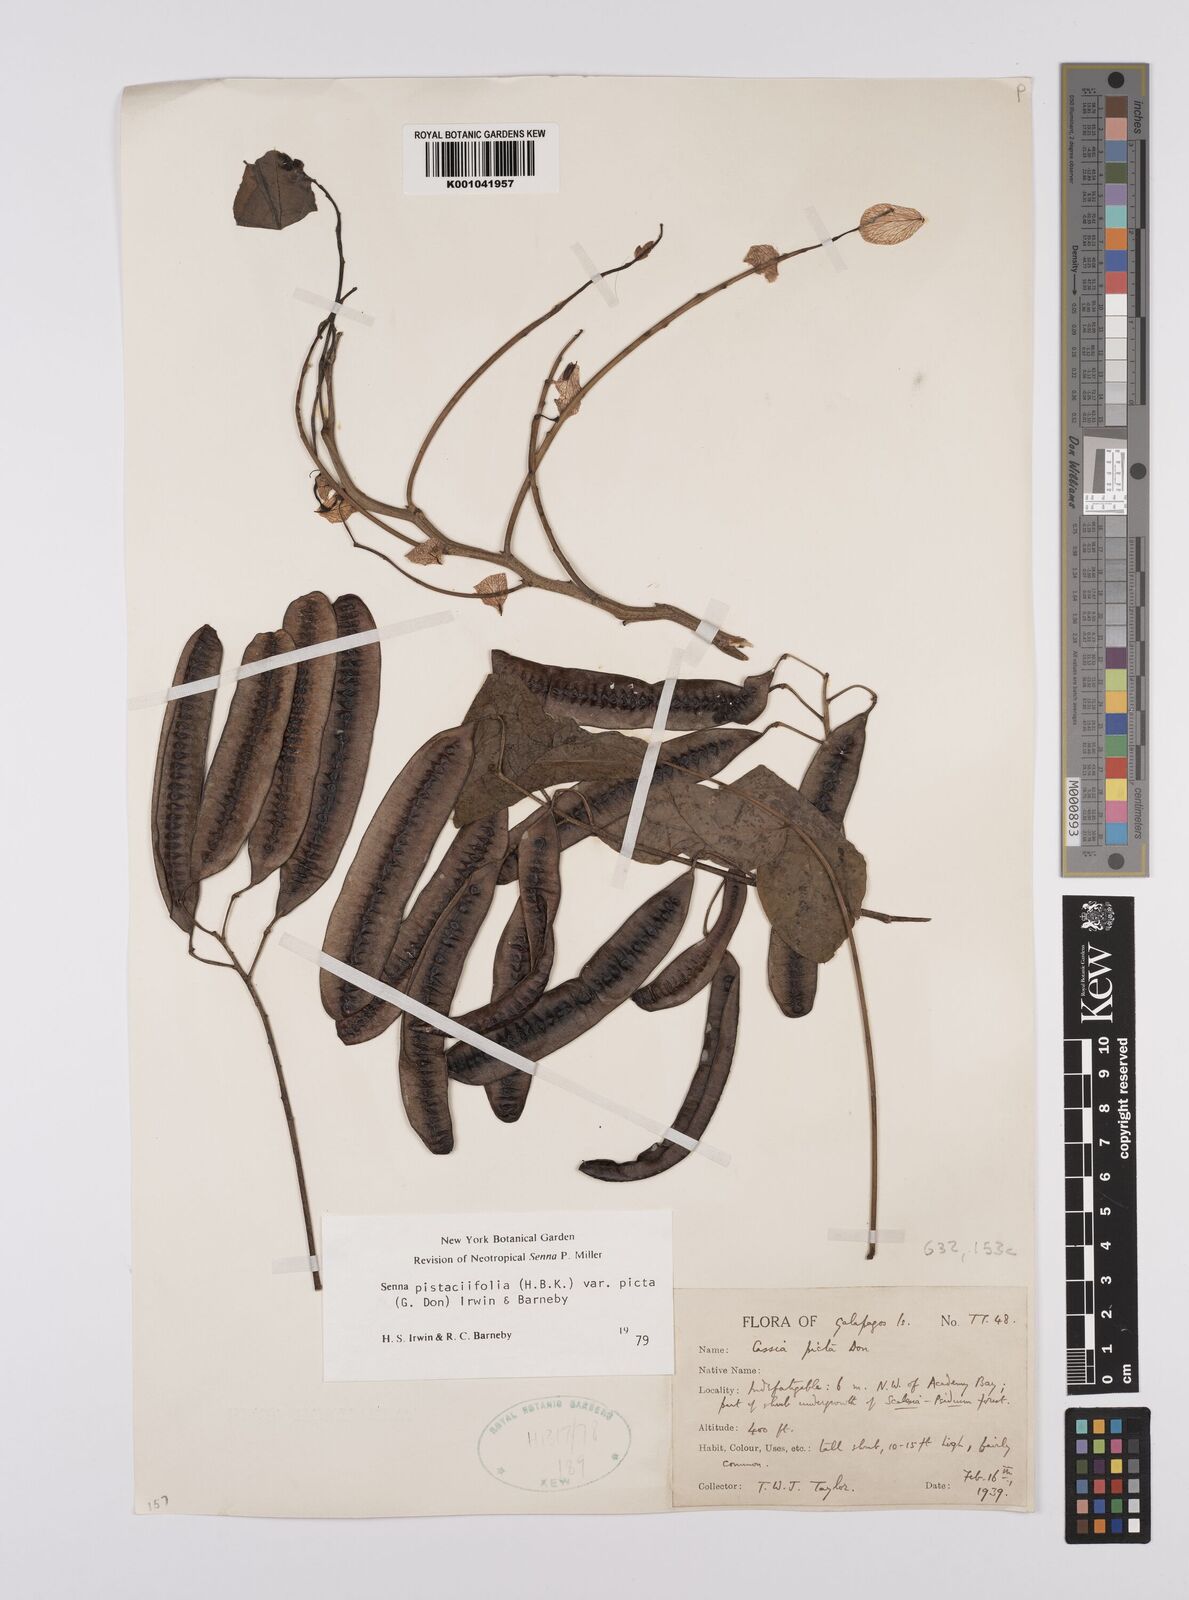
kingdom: Plantae
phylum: Tracheophyta
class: Magnoliopsida
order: Fabales
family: Fabaceae
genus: Senna
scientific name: Senna pistaciifolia
